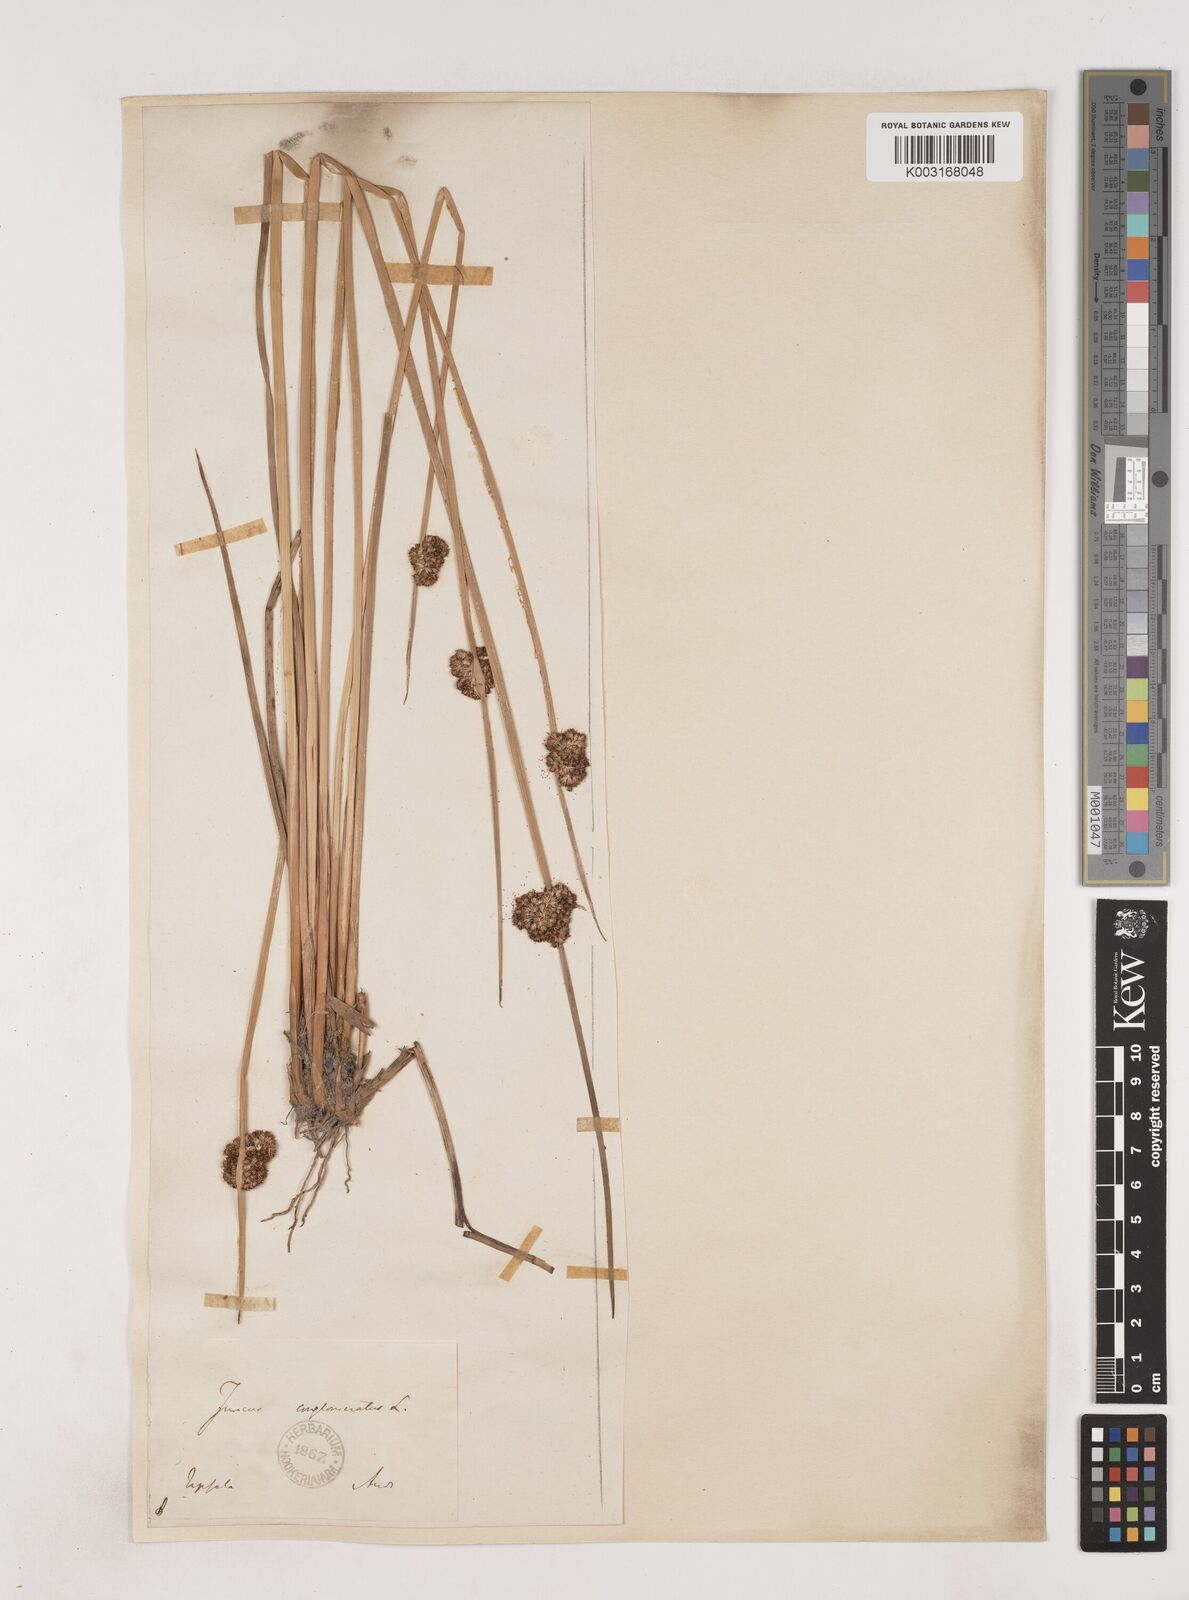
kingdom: Plantae
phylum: Tracheophyta
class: Liliopsida
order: Poales
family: Juncaceae
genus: Juncus
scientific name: Juncus conglomeratus
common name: Compact rush
